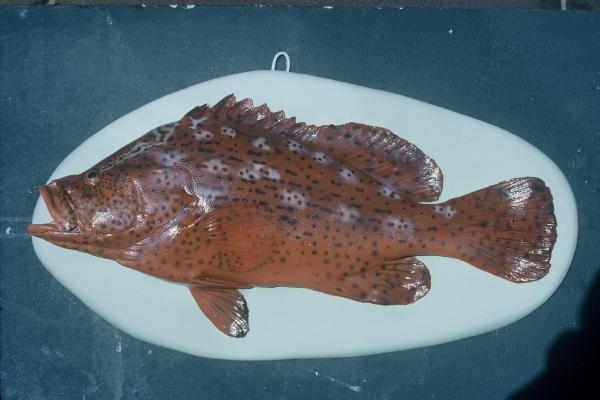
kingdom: Animalia
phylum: Chordata
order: Perciformes
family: Serranidae
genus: Dermatolepis
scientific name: Dermatolepis striolata
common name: Smooth grouper
